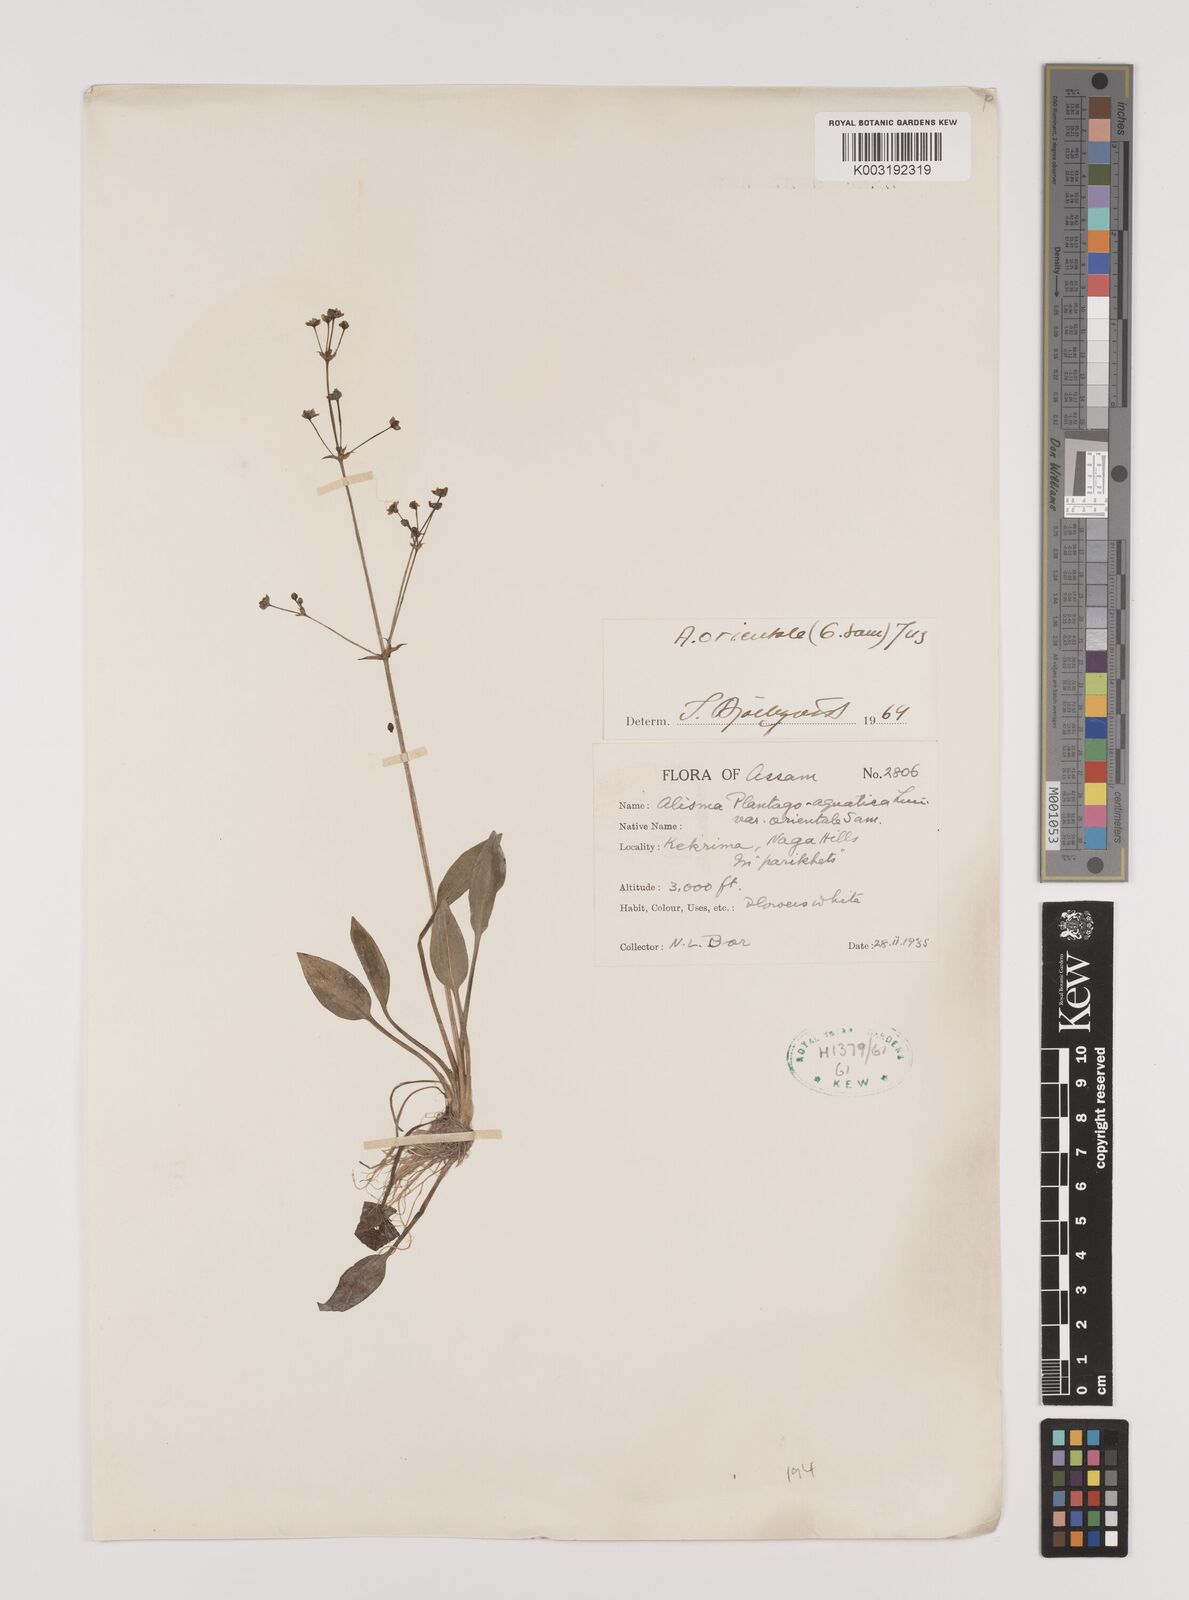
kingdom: Plantae
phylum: Tracheophyta
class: Liliopsida
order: Alismatales
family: Alismataceae
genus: Alisma
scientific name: Alisma plantago-aquatica
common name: Water-plantain
